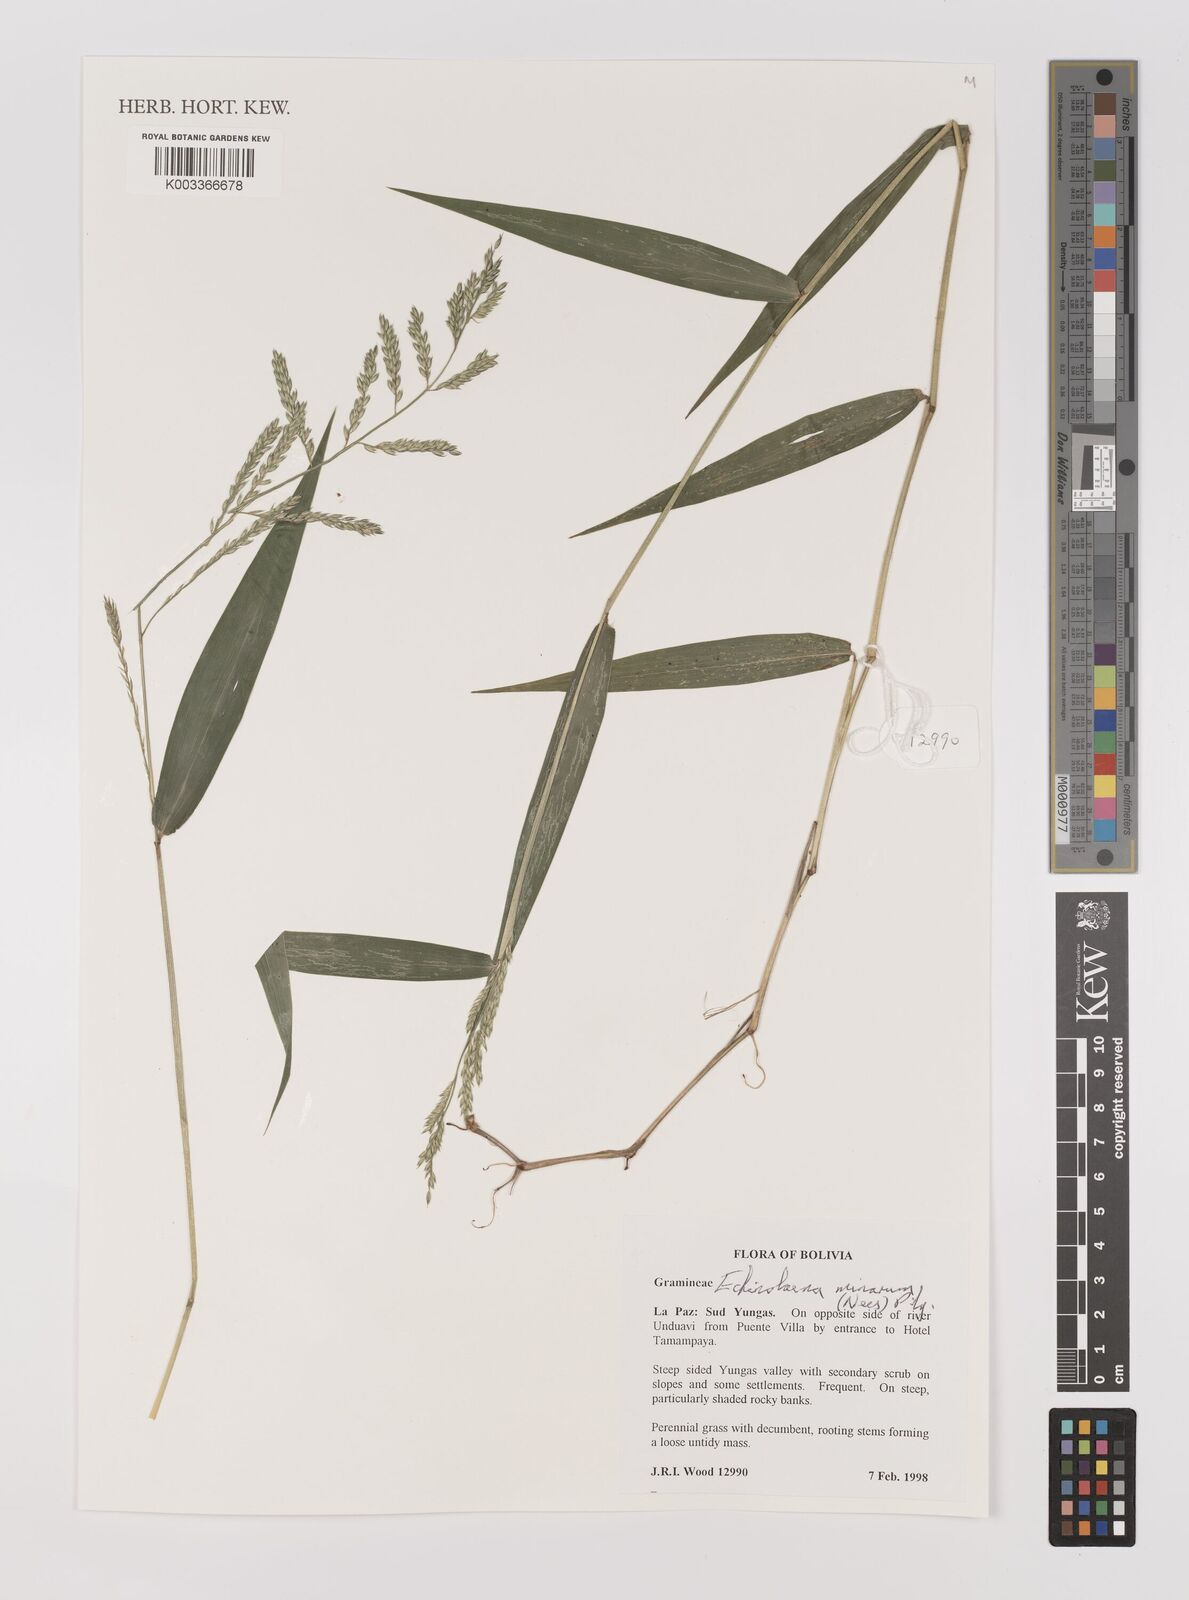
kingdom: Plantae
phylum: Tracheophyta
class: Liliopsida
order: Poales
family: Poaceae
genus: Oedochloa
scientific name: Oedochloa minarum
